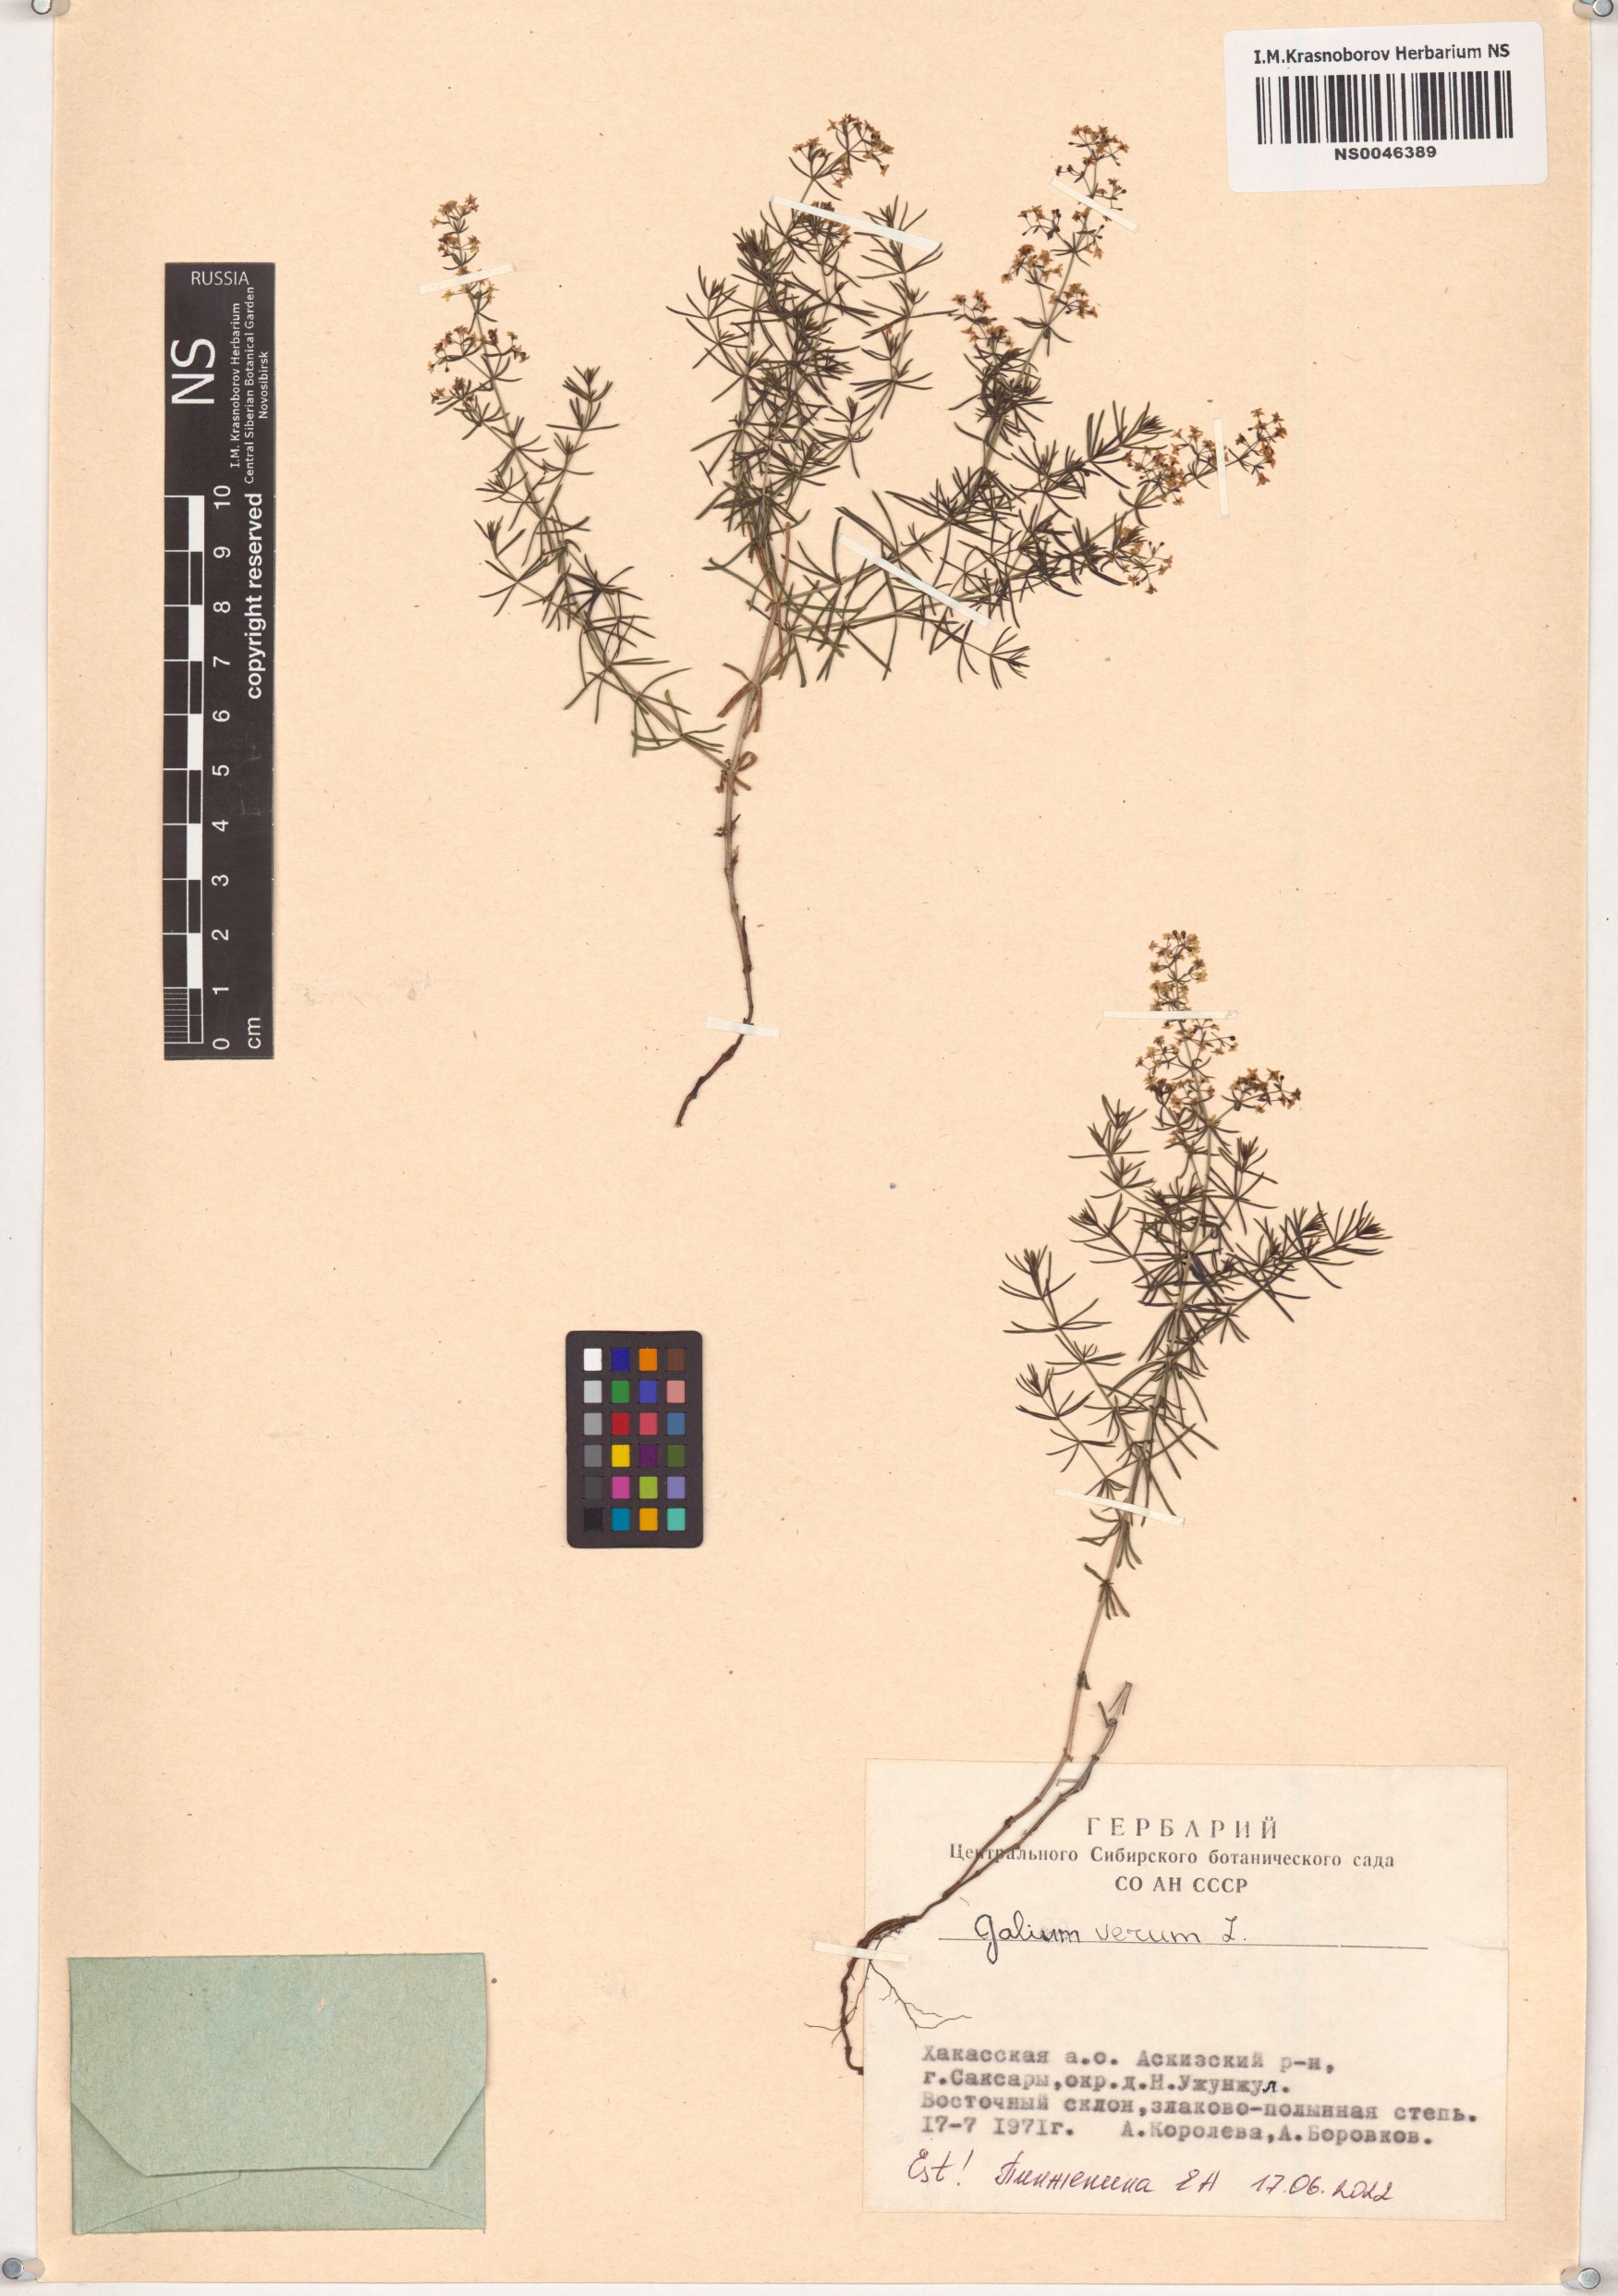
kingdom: Plantae
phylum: Tracheophyta
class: Magnoliopsida
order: Gentianales
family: Rubiaceae
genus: Galium
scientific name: Galium verum
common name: Lady's bedstraw
